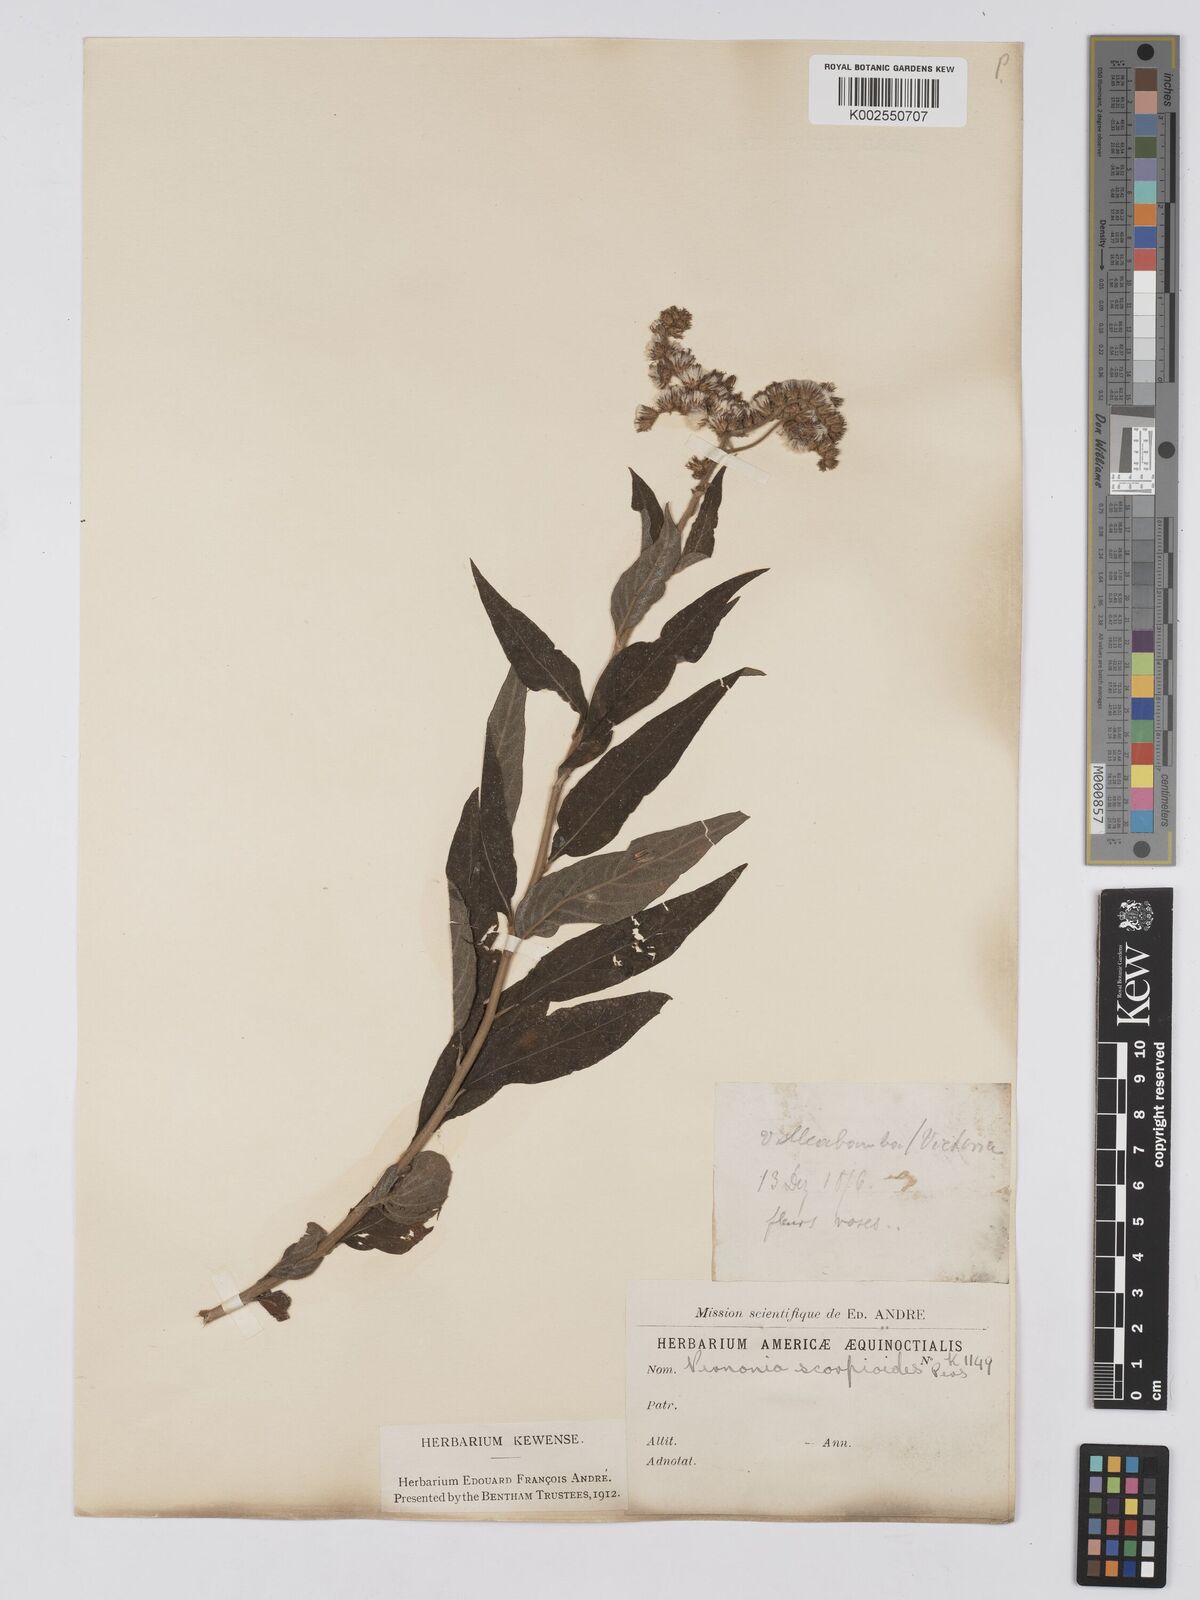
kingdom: Plantae
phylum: Tracheophyta
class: Magnoliopsida
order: Asterales
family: Asteraceae
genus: Cyrtocymura
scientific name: Cyrtocymura scorpioides
